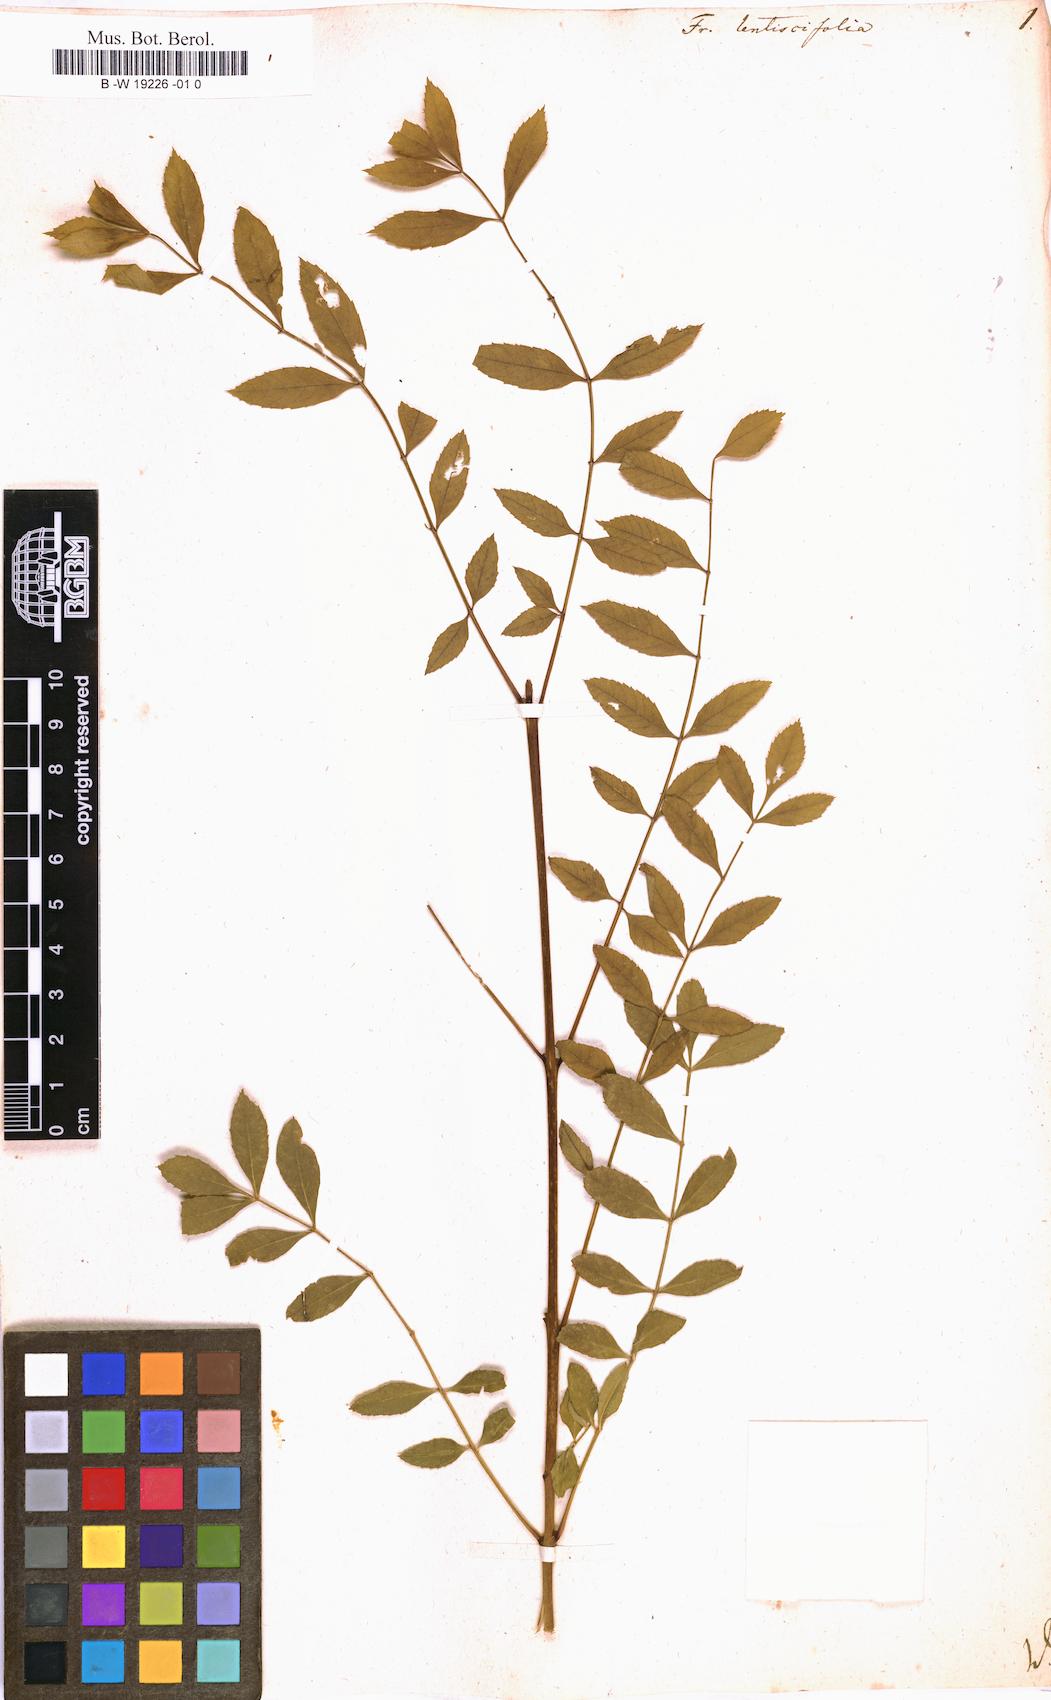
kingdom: Plantae
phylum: Tracheophyta
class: Magnoliopsida
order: Lamiales
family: Oleaceae
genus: Fraxinus
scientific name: Fraxinus angustifolia
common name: Narrow-leafed ash
